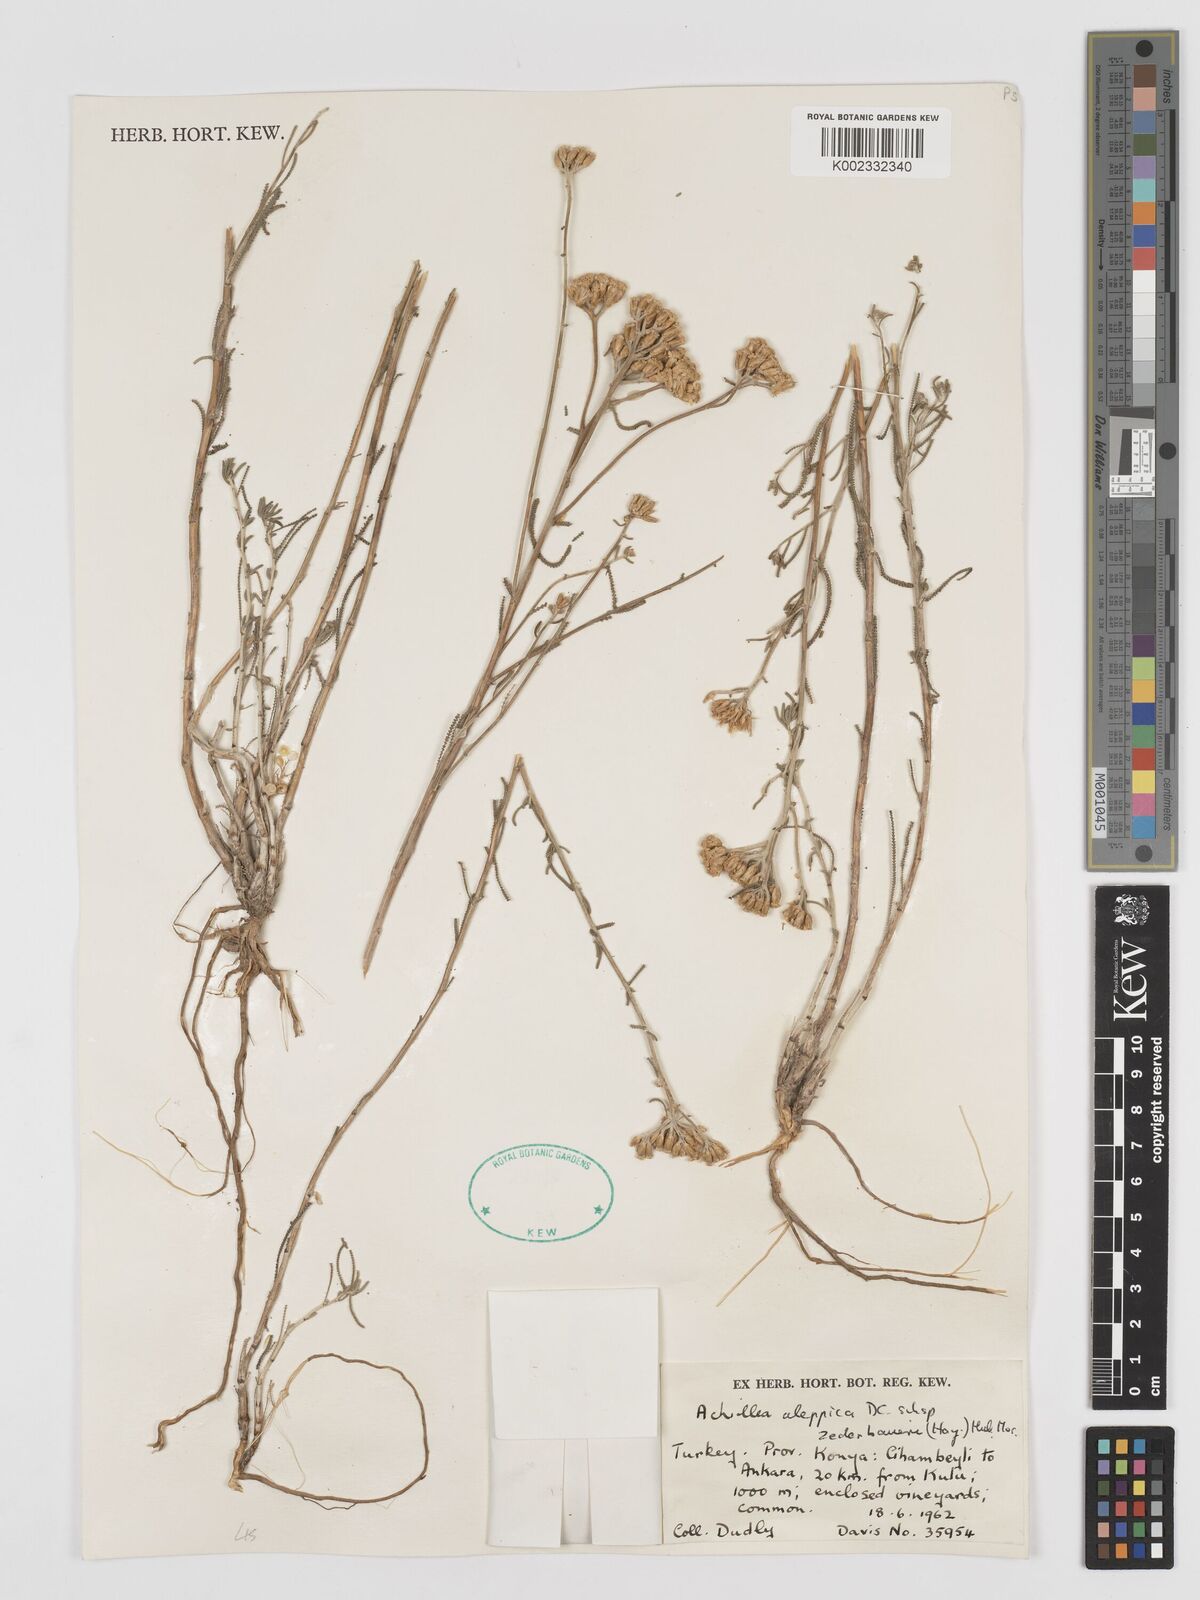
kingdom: Plantae
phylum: Tracheophyta
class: Magnoliopsida
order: Asterales
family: Asteraceae
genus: Achillea
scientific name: Achillea aleppica
